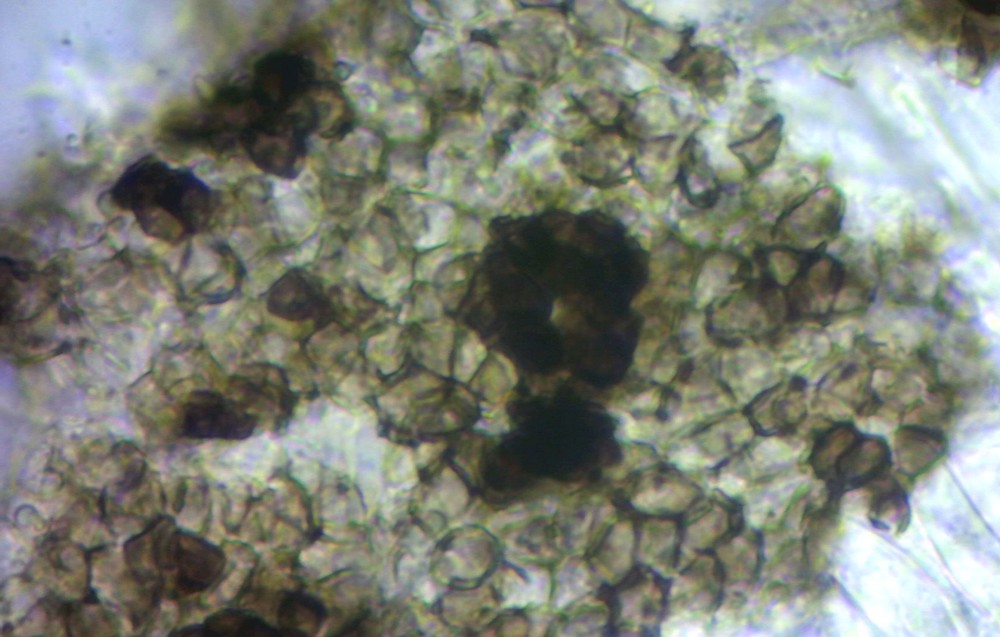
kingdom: Fungi
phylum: Ascomycota
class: Leotiomycetes
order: Helotiales
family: Dermateaceae
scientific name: Dermateaceae
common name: gråskivefamilien
